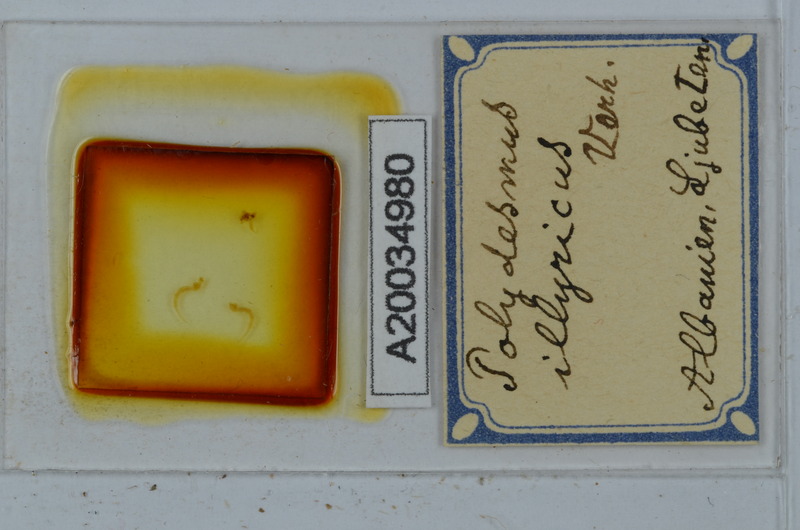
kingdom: Animalia
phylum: Arthropoda
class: Diplopoda
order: Polydesmida
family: Polydesmidae
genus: Polydesmus
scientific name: Polydesmus complanatus
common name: Flat-backed millipede
